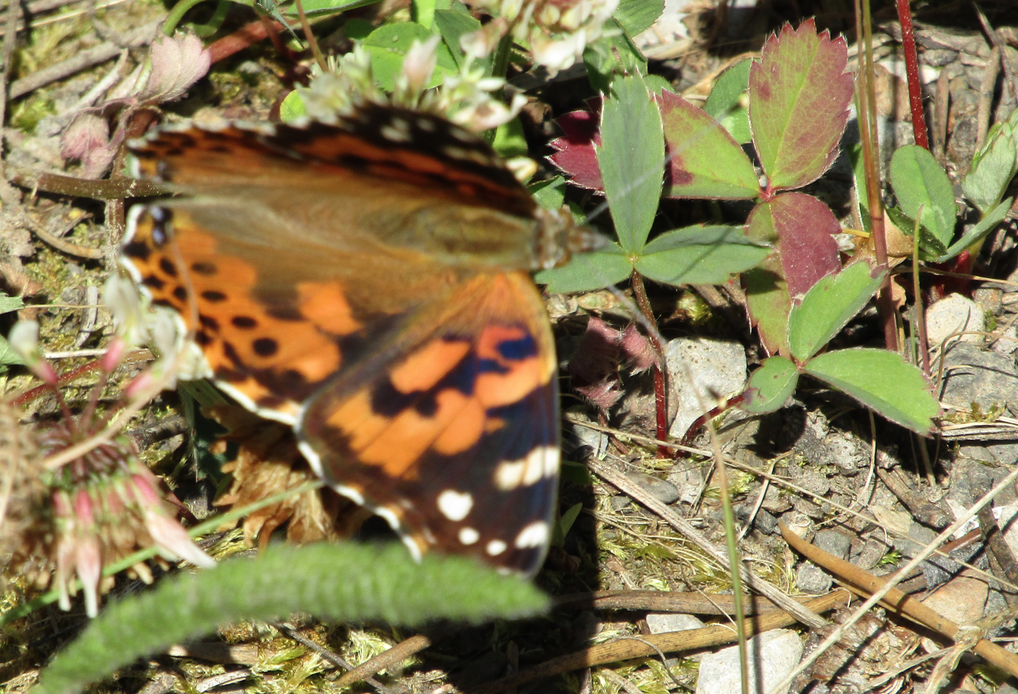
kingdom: Animalia
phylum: Arthropoda
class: Insecta
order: Lepidoptera
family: Nymphalidae
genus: Vanessa
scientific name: Vanessa cardui
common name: Painted Lady
